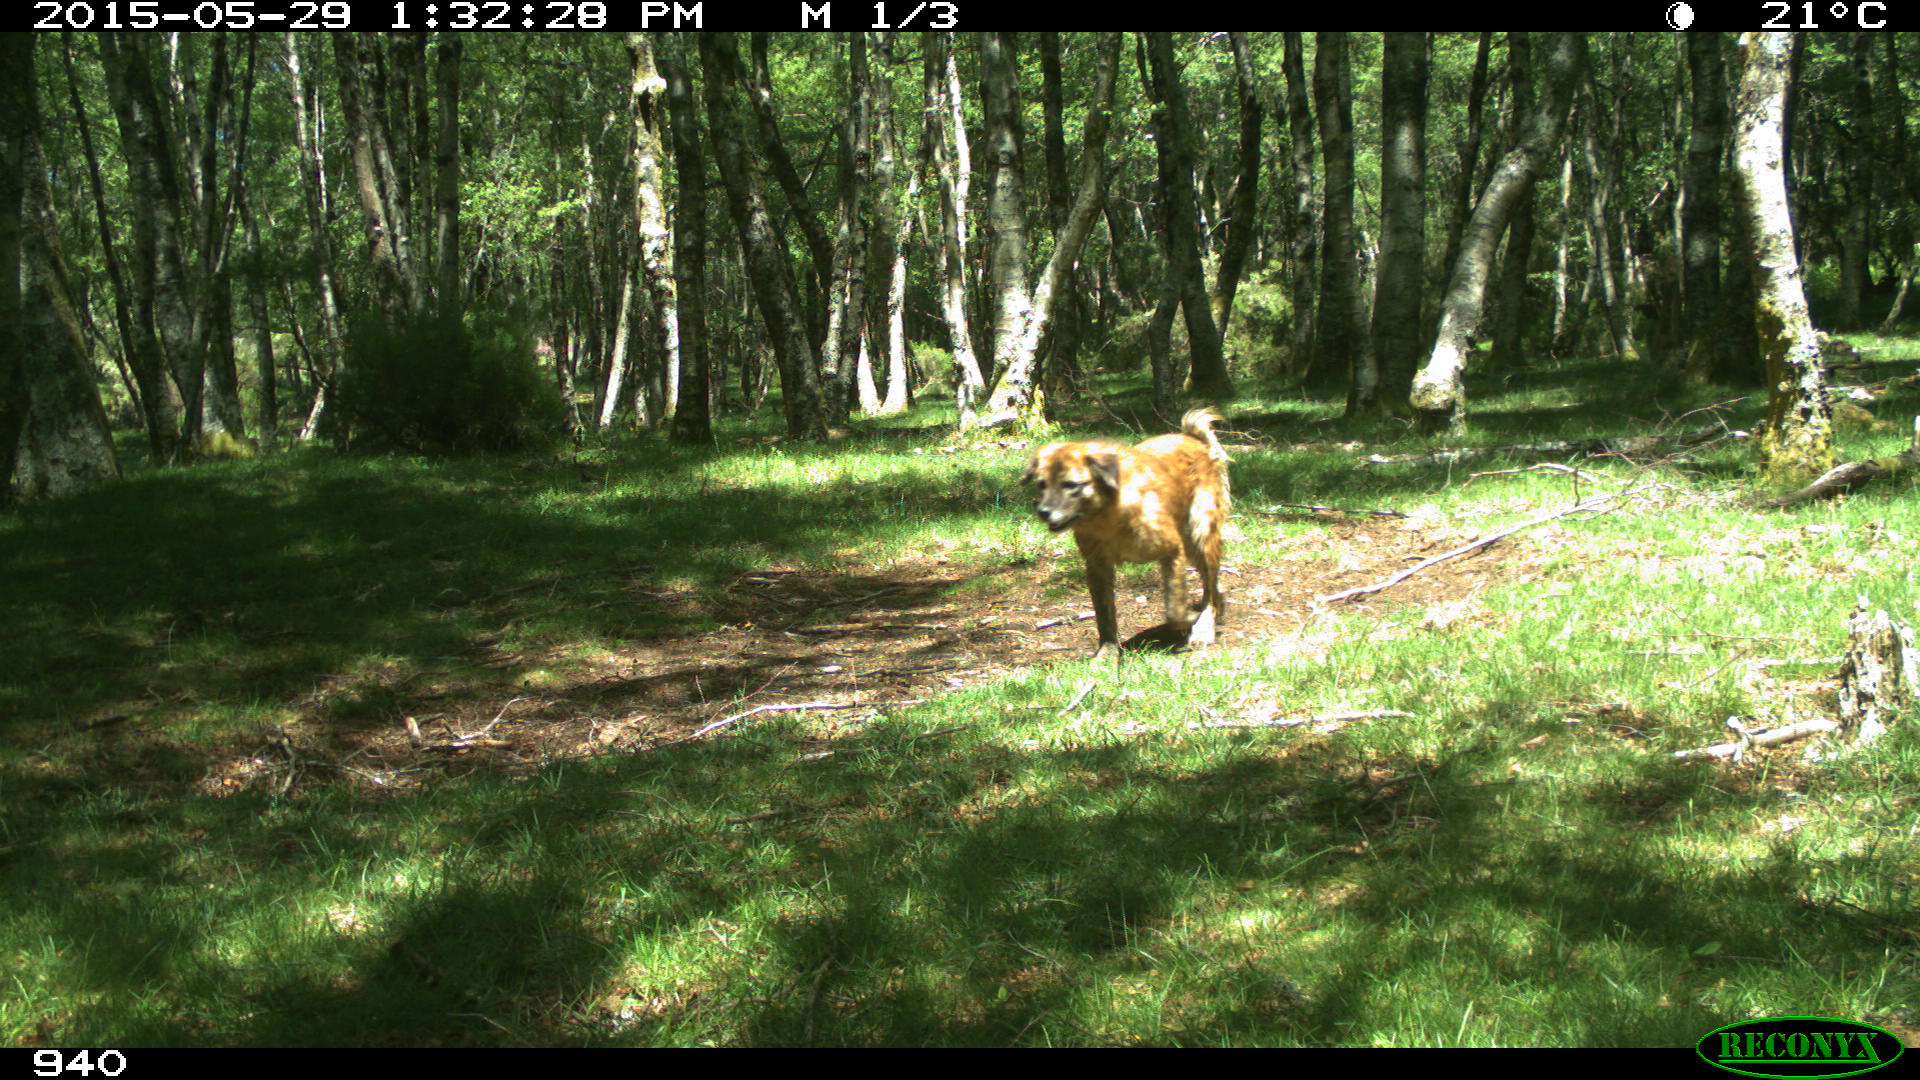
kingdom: Animalia
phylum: Chordata
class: Mammalia
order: Carnivora
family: Canidae
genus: Canis
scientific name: Canis lupus
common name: Gray wolf
